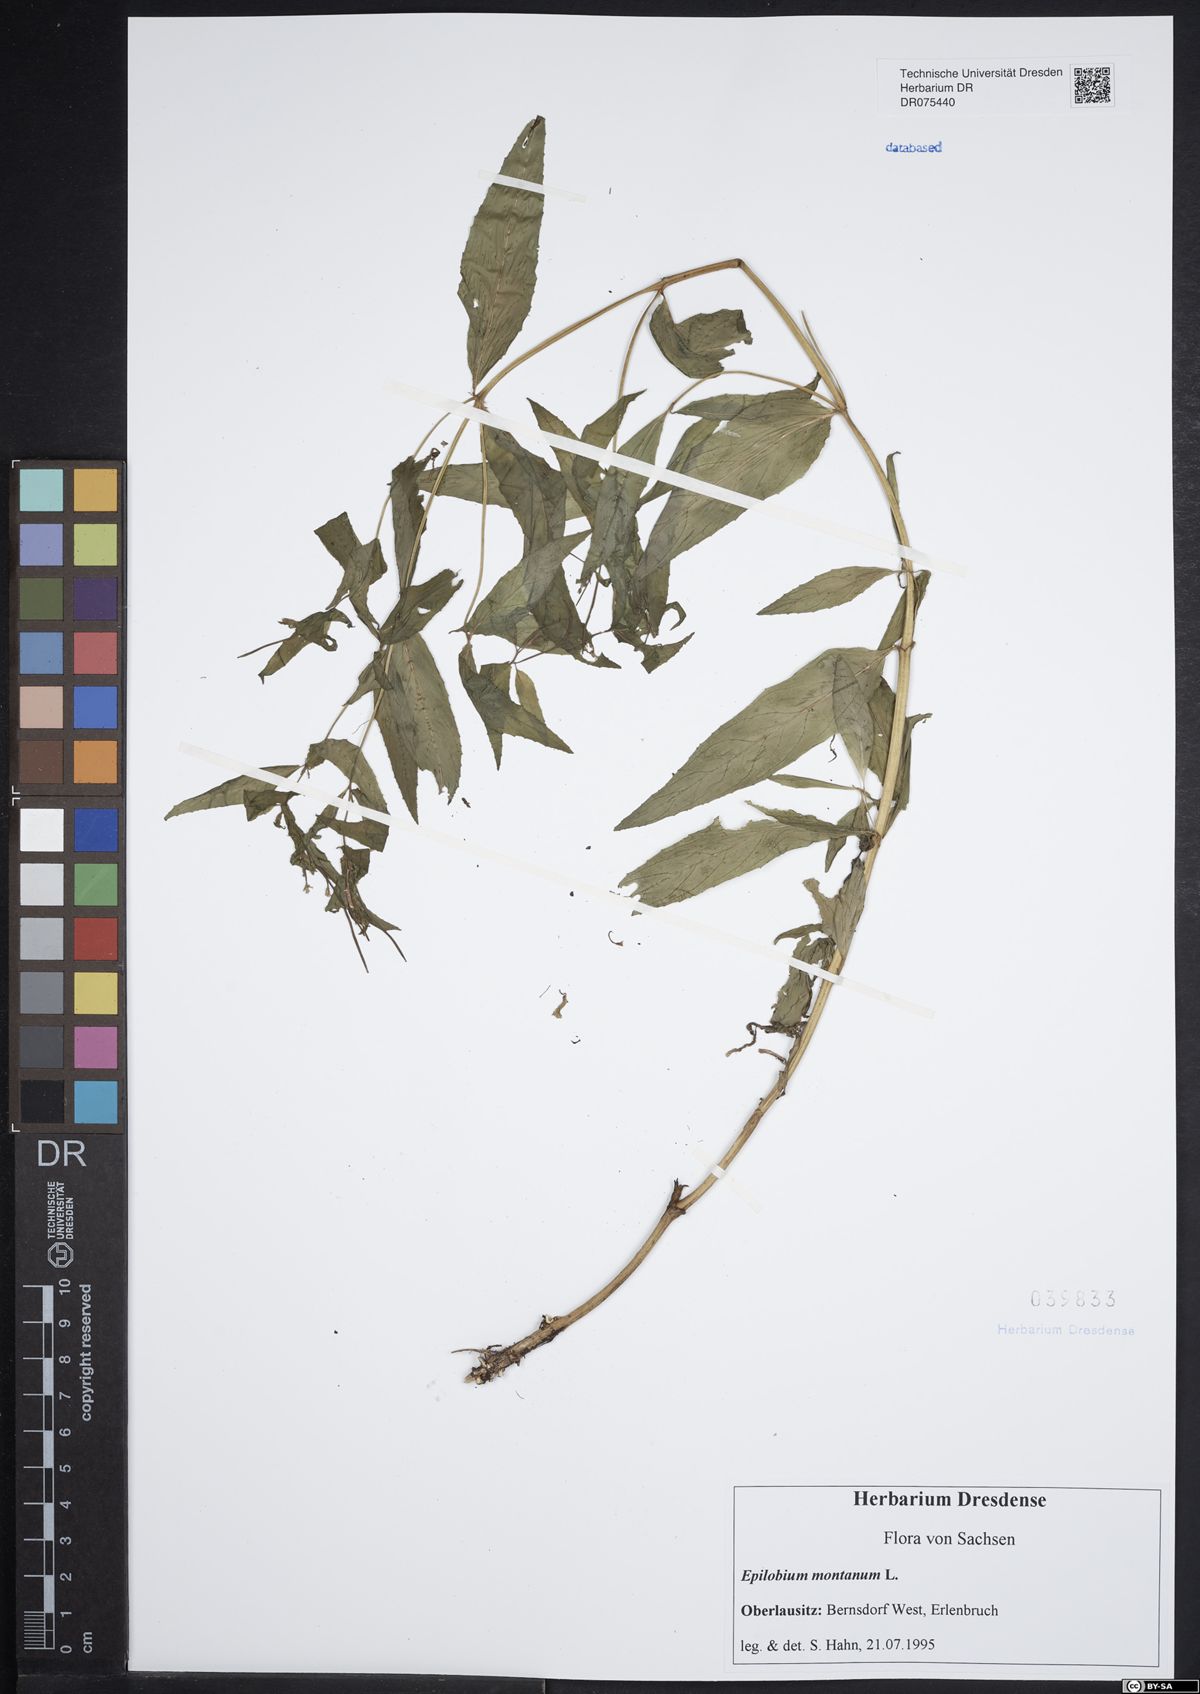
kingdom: Plantae
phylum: Tracheophyta
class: Magnoliopsida
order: Myrtales
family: Onagraceae
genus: Epilobium
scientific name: Epilobium montanum
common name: Broad-leaved willowherb
